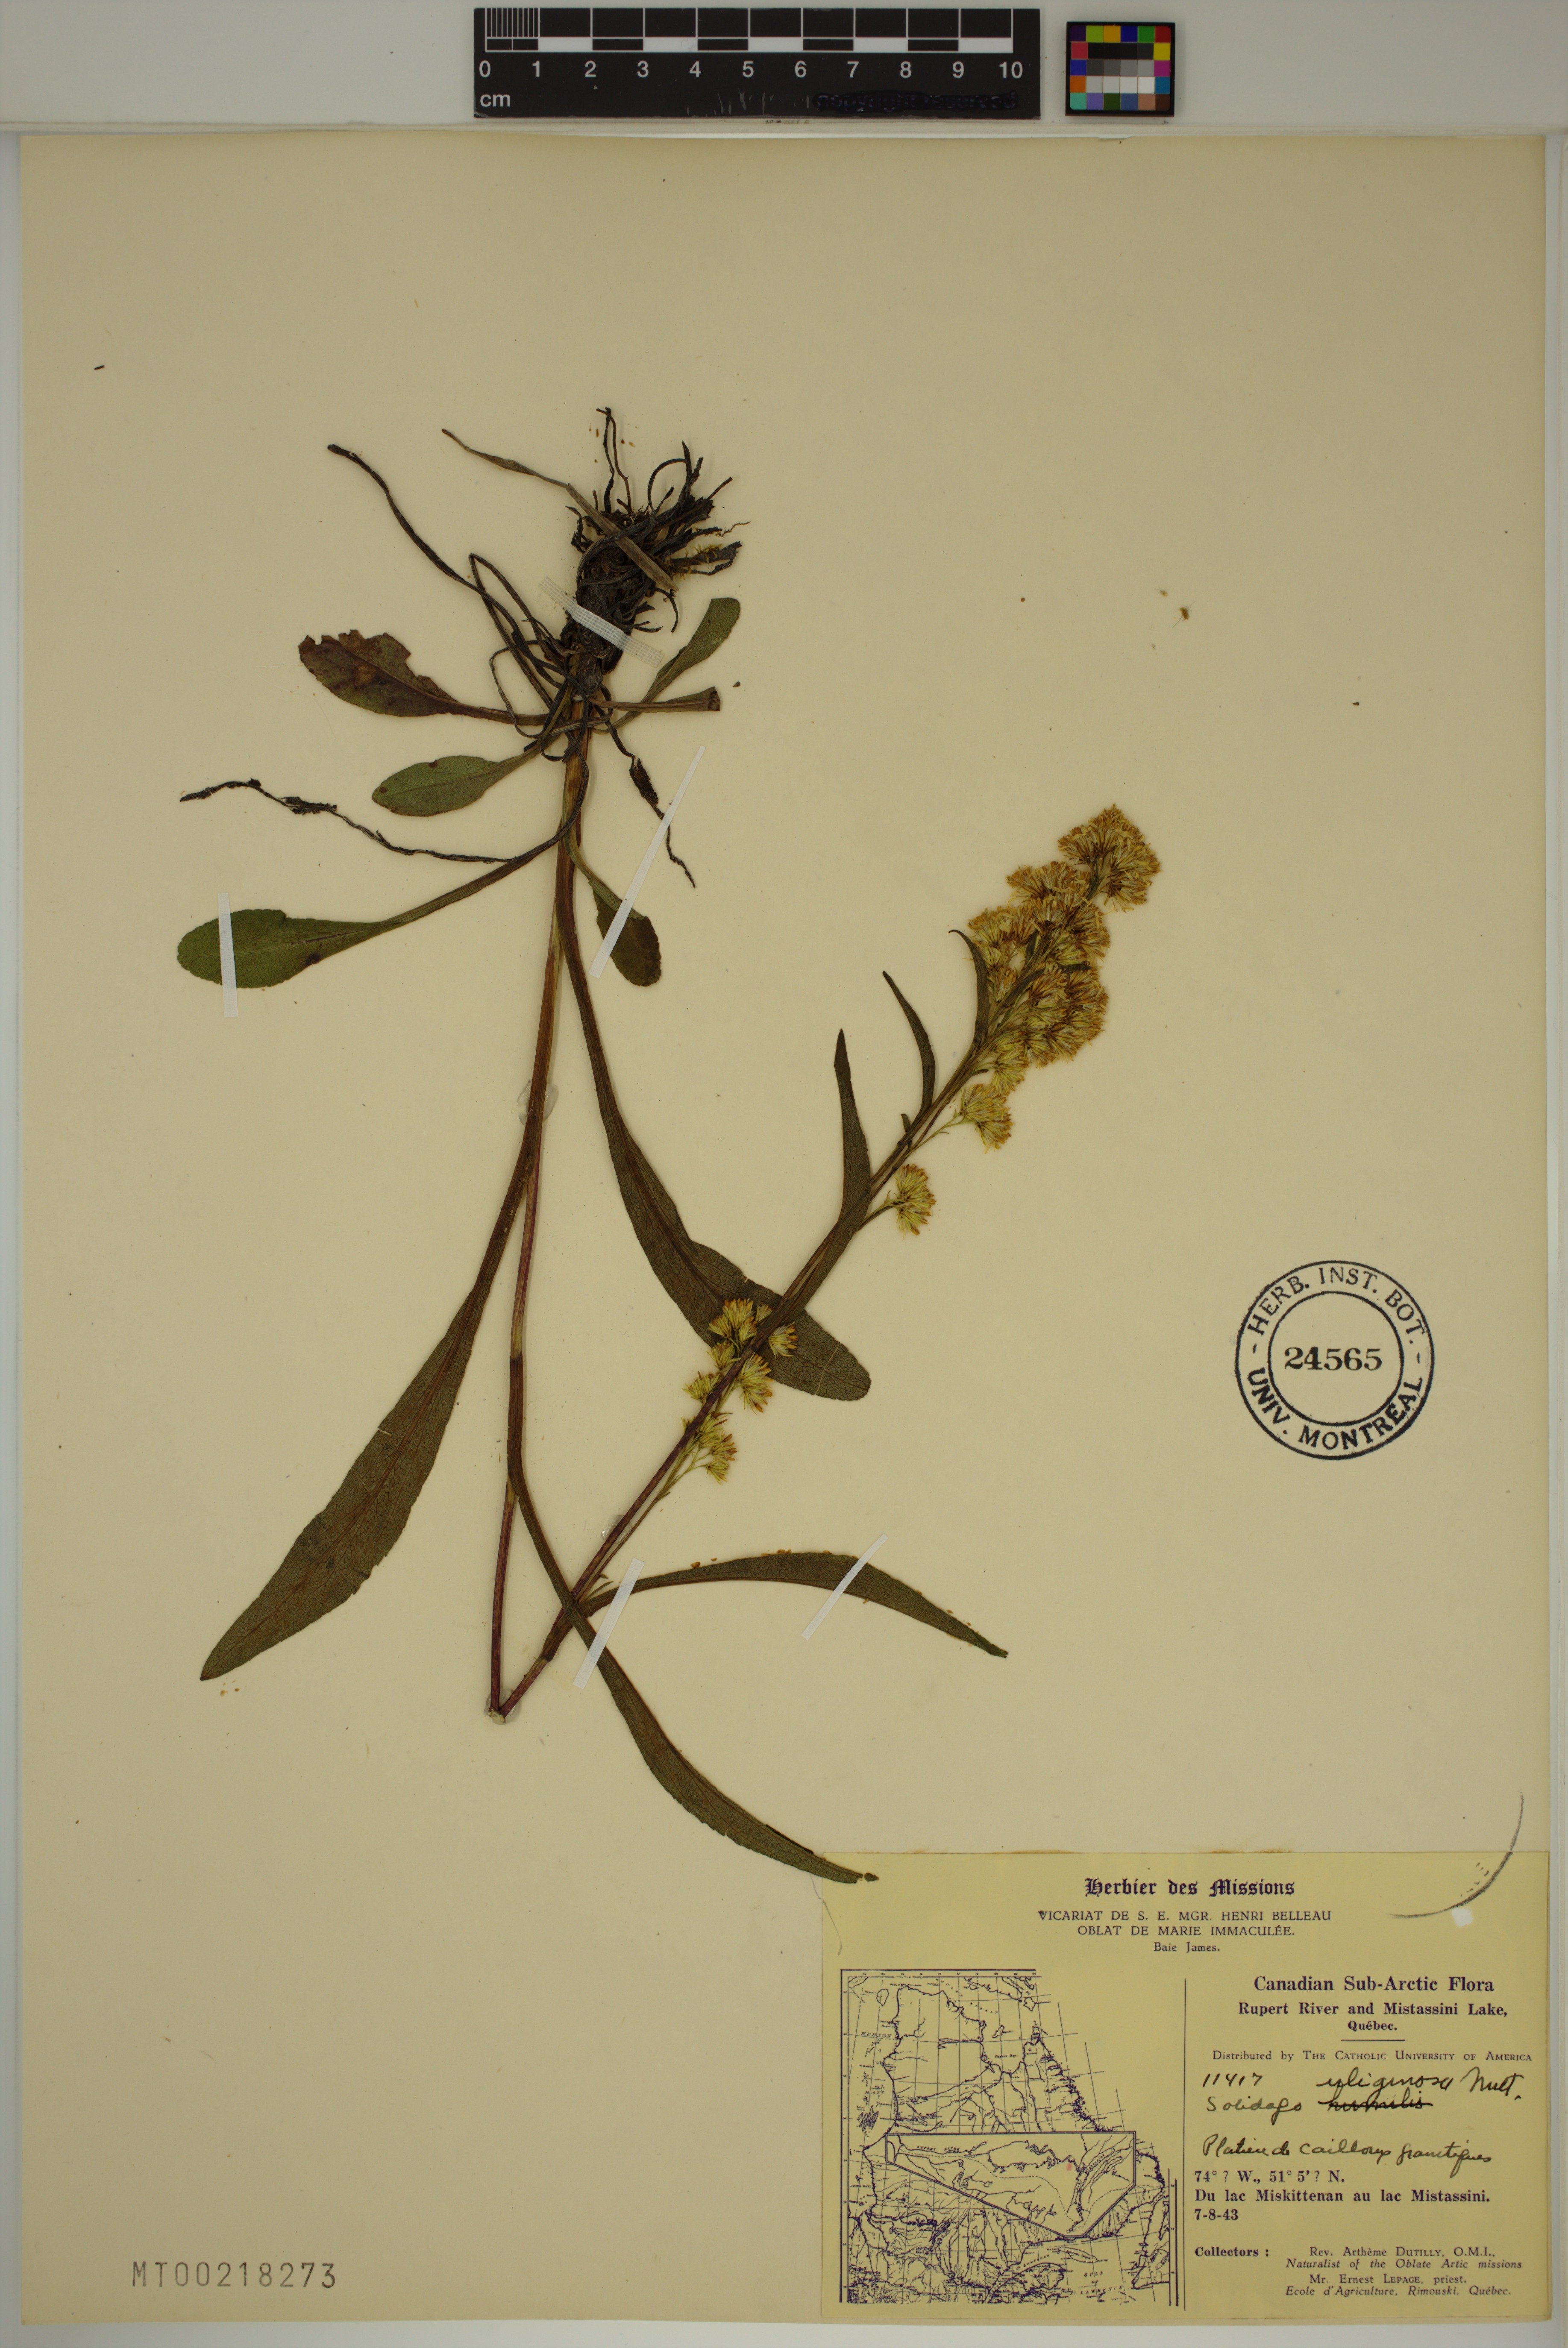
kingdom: Plantae
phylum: Tracheophyta
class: Magnoliopsida
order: Asterales
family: Asteraceae
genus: Solidago
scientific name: Solidago uliginosa
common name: Bog goldenrod
